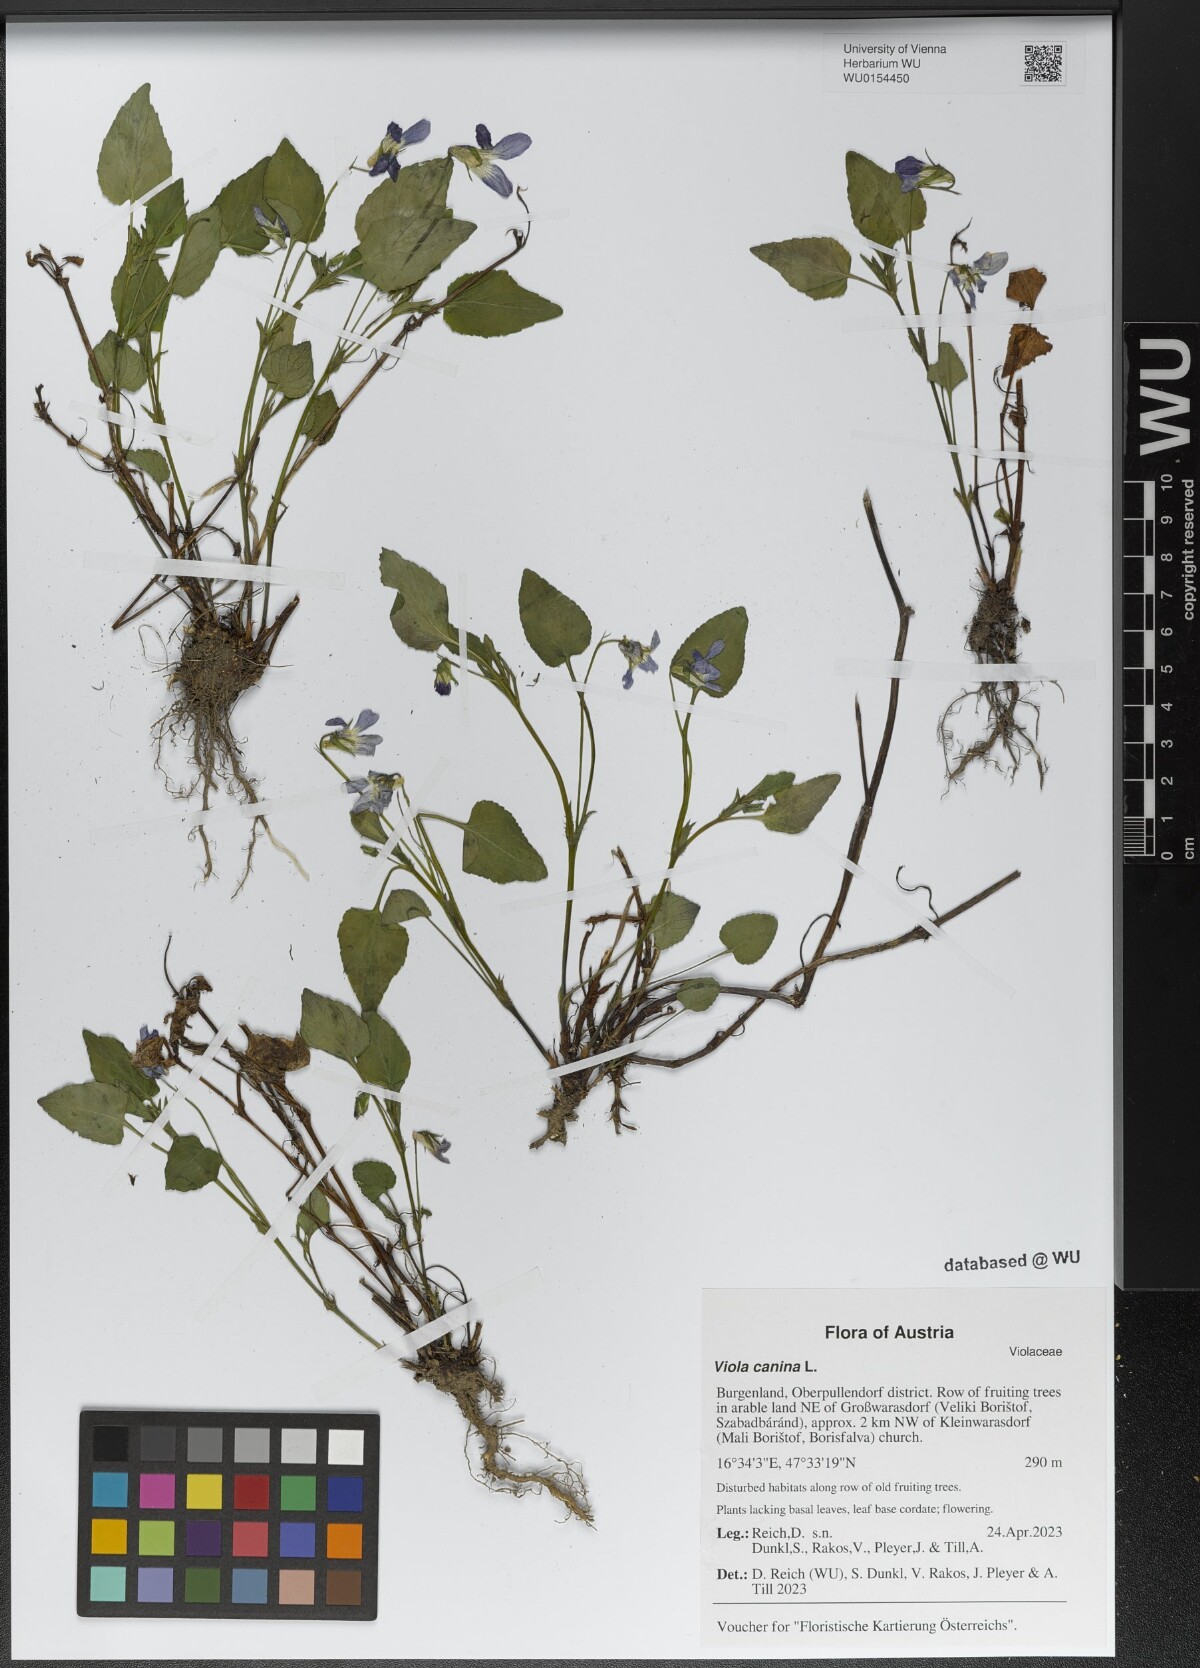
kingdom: Plantae
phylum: Tracheophyta
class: Magnoliopsida
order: Malpighiales
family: Violaceae
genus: Viola
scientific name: Viola canina
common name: Heath dog-violet
